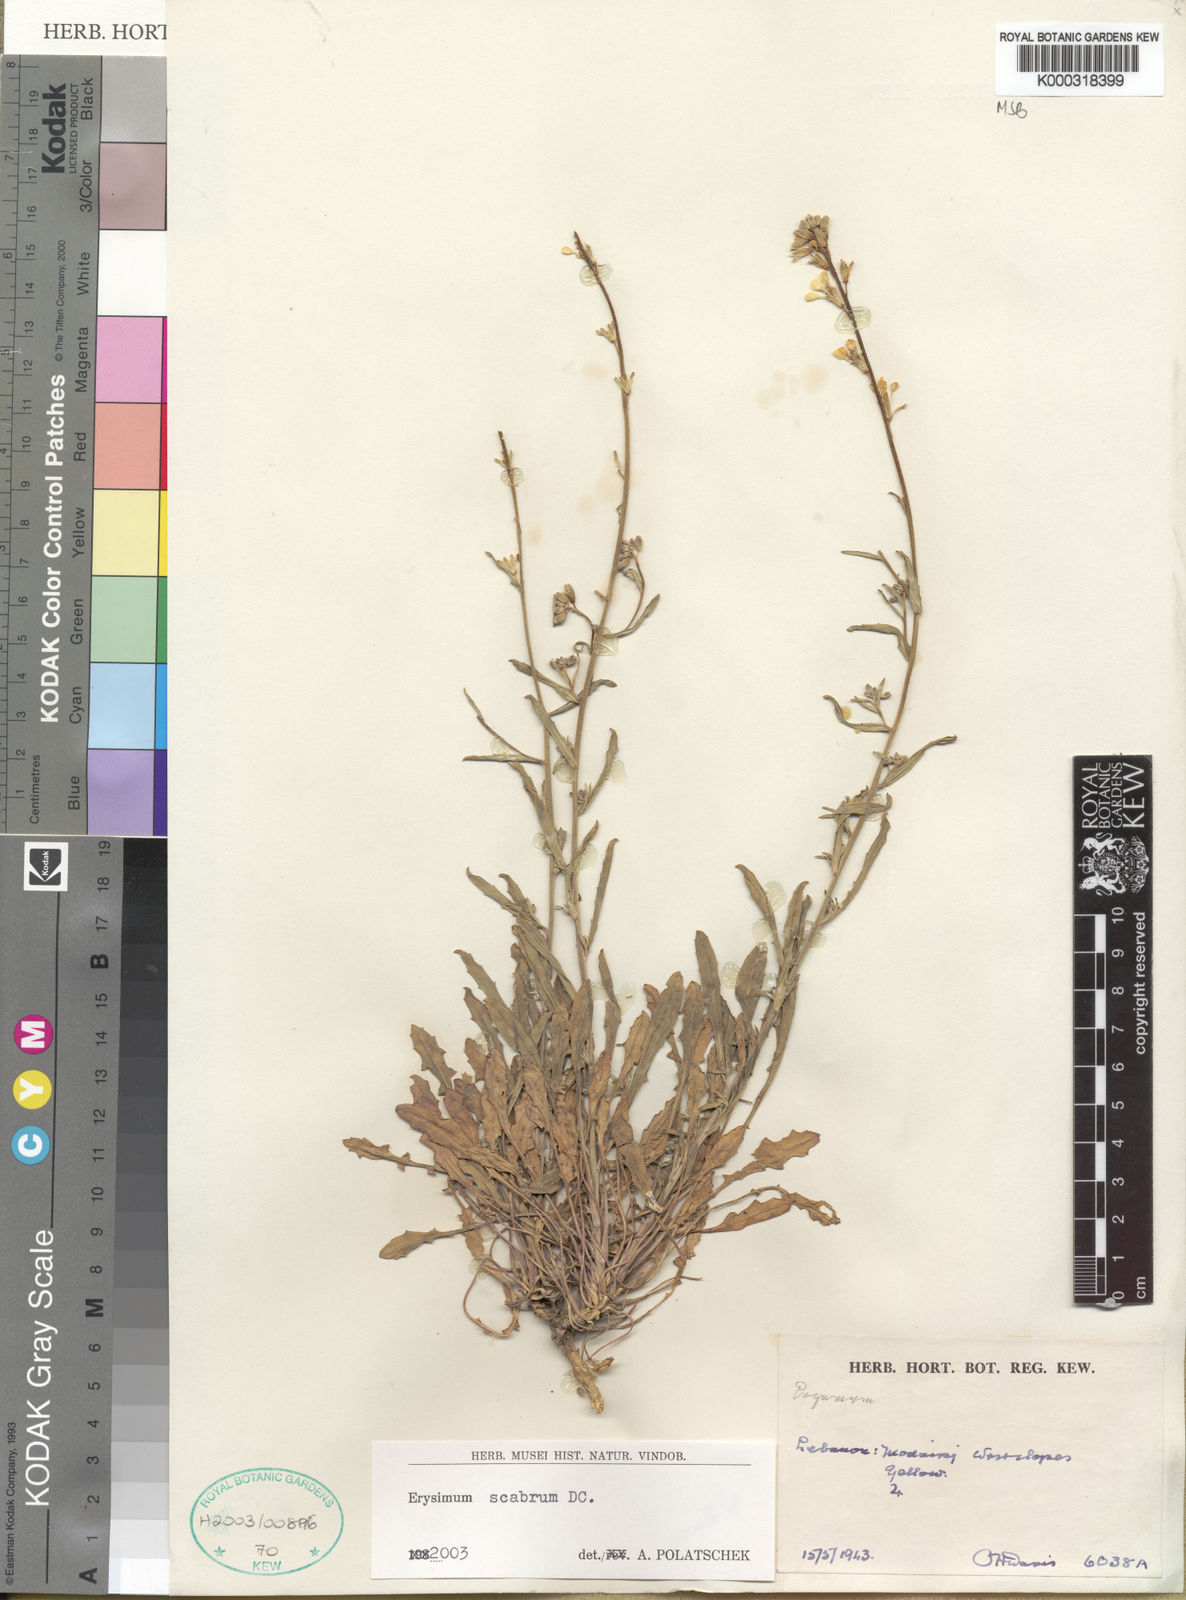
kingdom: Plantae
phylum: Tracheophyta
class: Magnoliopsida
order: Brassicales
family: Brassicaceae
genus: Erysimum
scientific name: Erysimum scabrum
